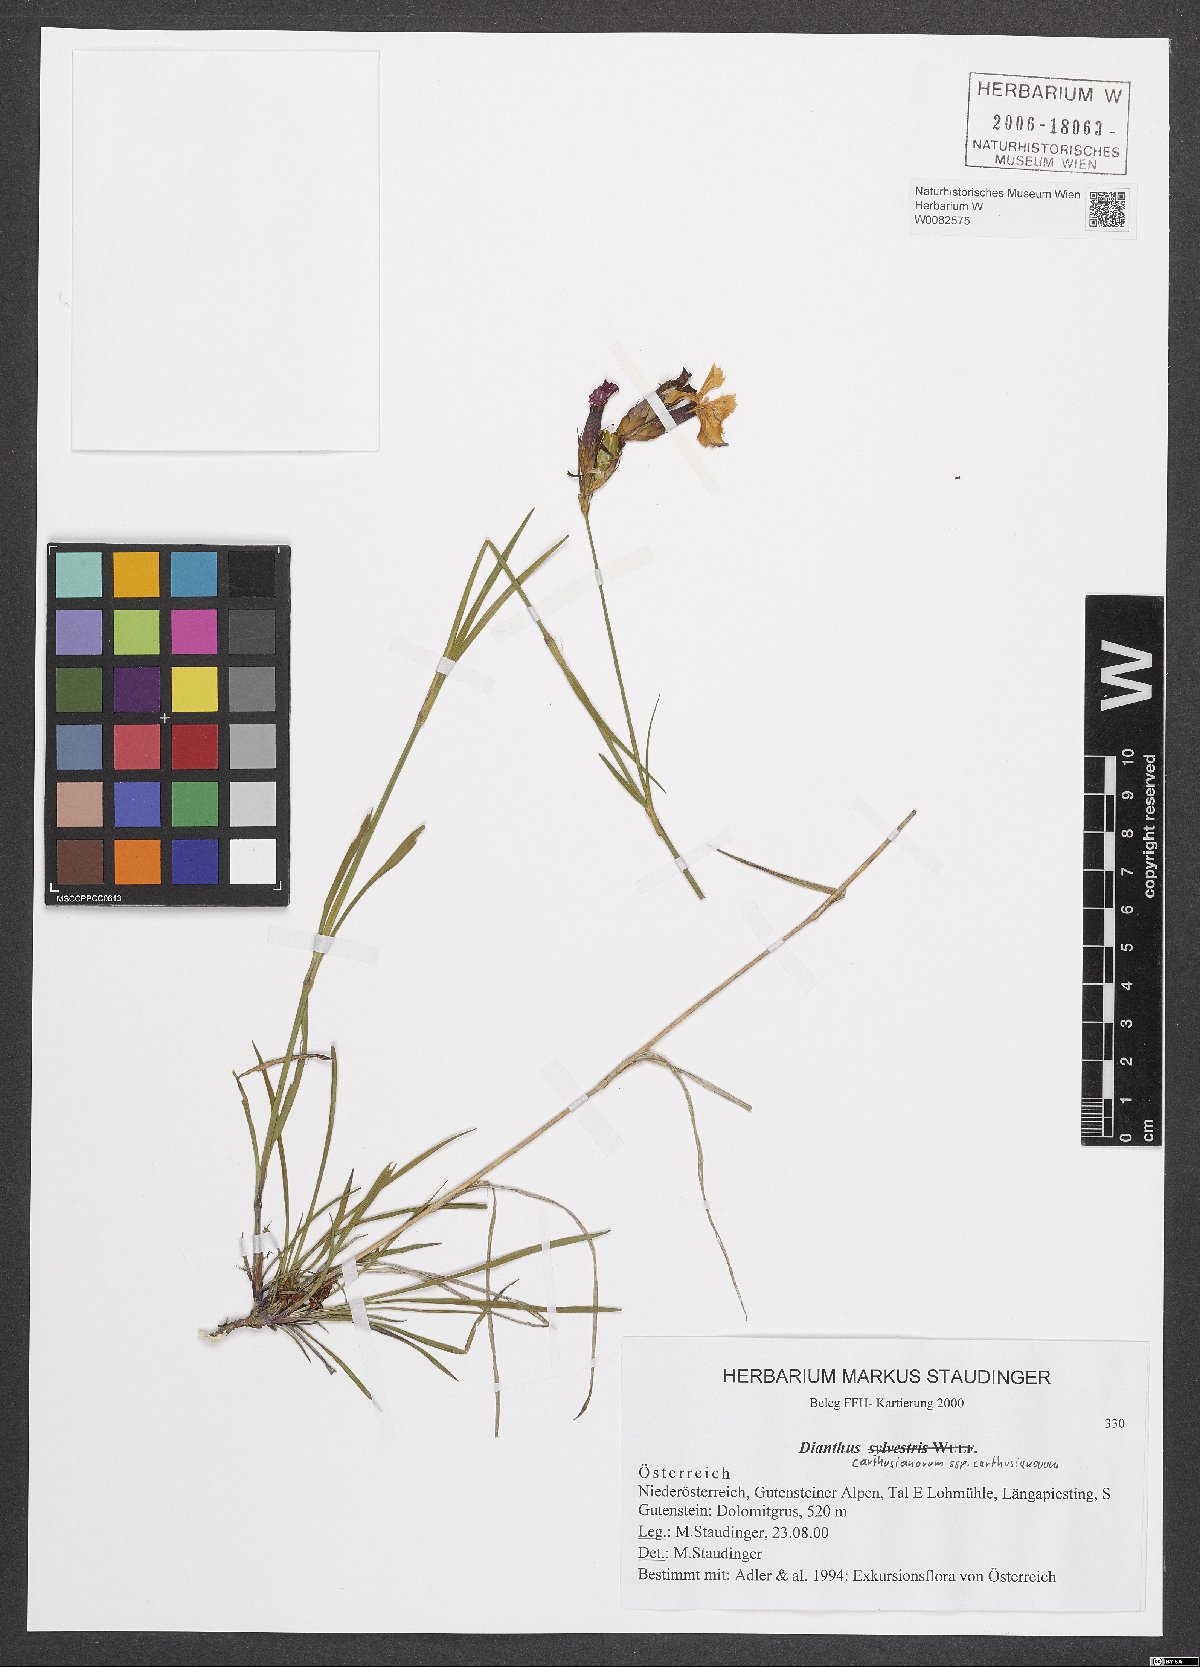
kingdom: Plantae
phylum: Tracheophyta
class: Magnoliopsida
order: Caryophyllales
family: Caryophyllaceae
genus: Dianthus
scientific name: Dianthus carthusianorum
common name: Carthusian pink
